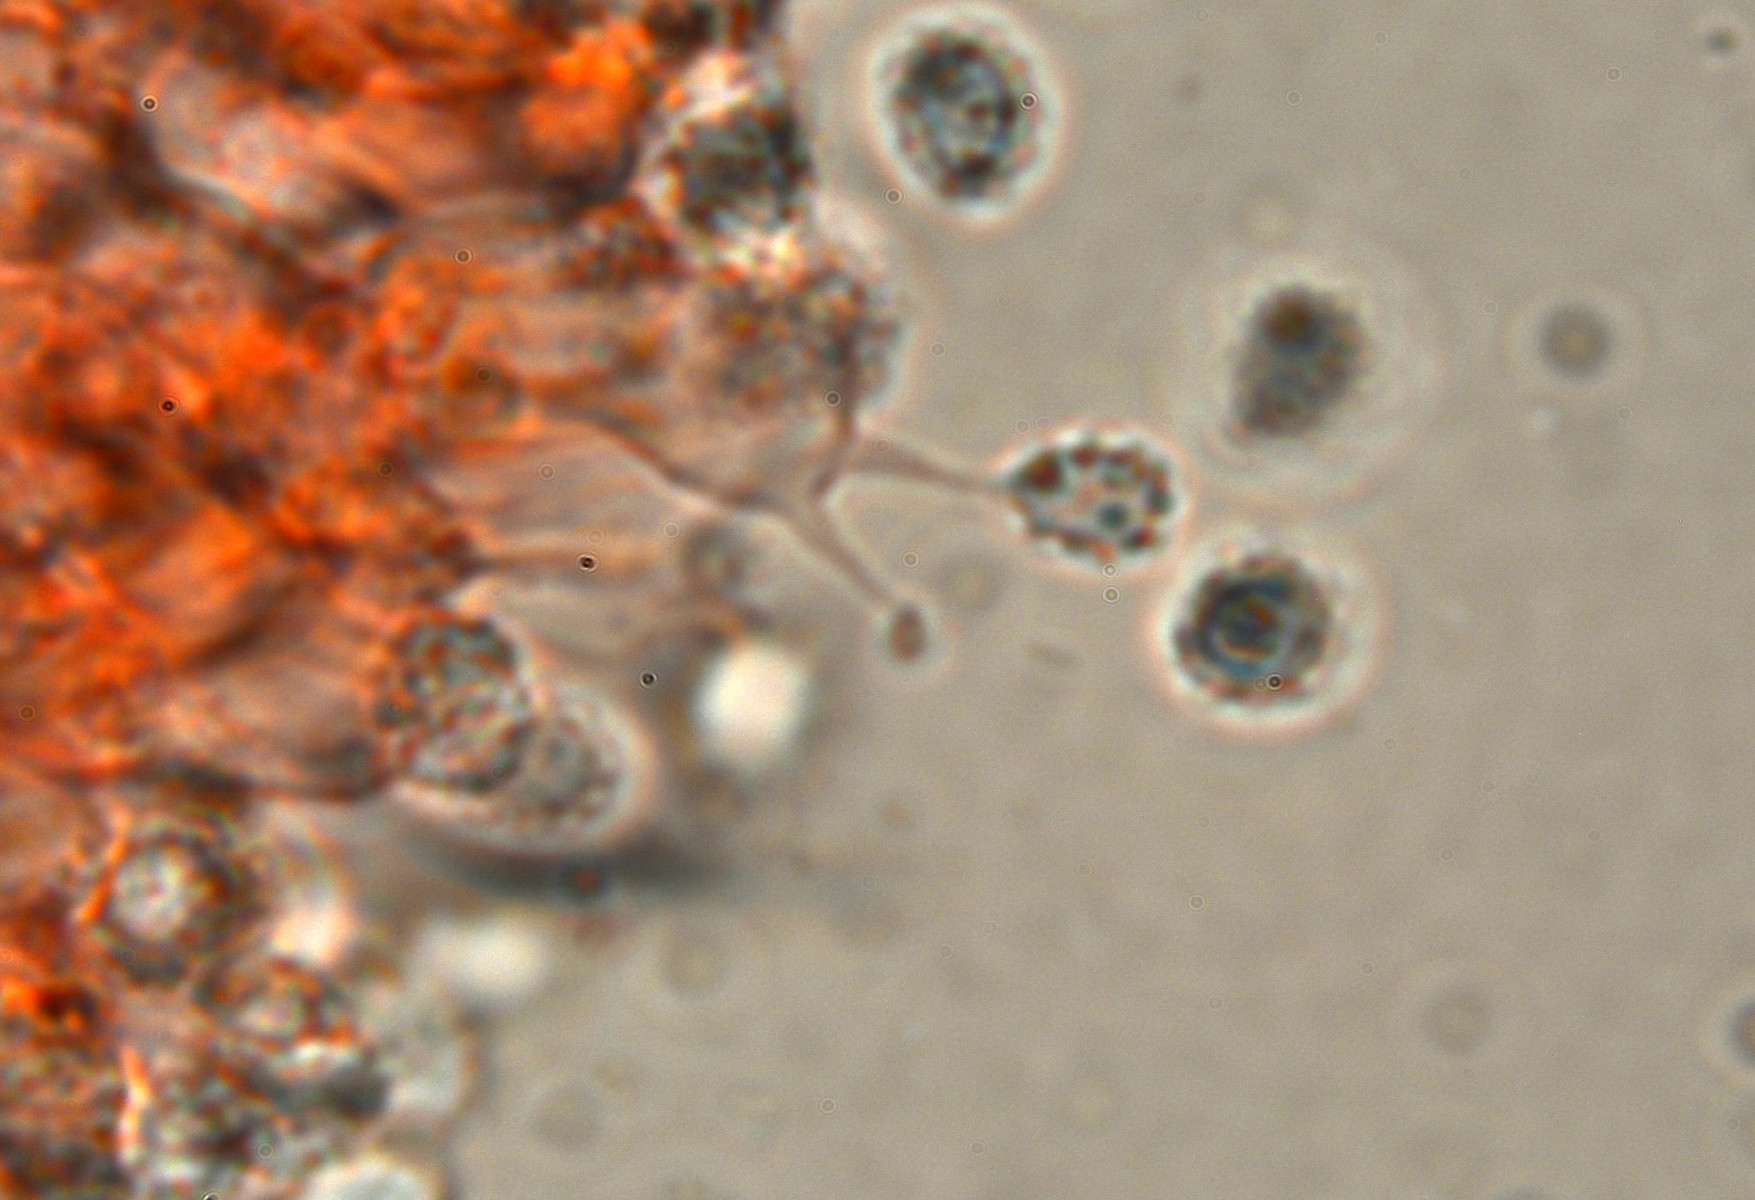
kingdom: Fungi
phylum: Basidiomycota
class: Agaricomycetes
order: Trechisporales
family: Sistotremataceae
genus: Trechispora
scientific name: Trechispora stevensonii
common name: støvende vathinde
